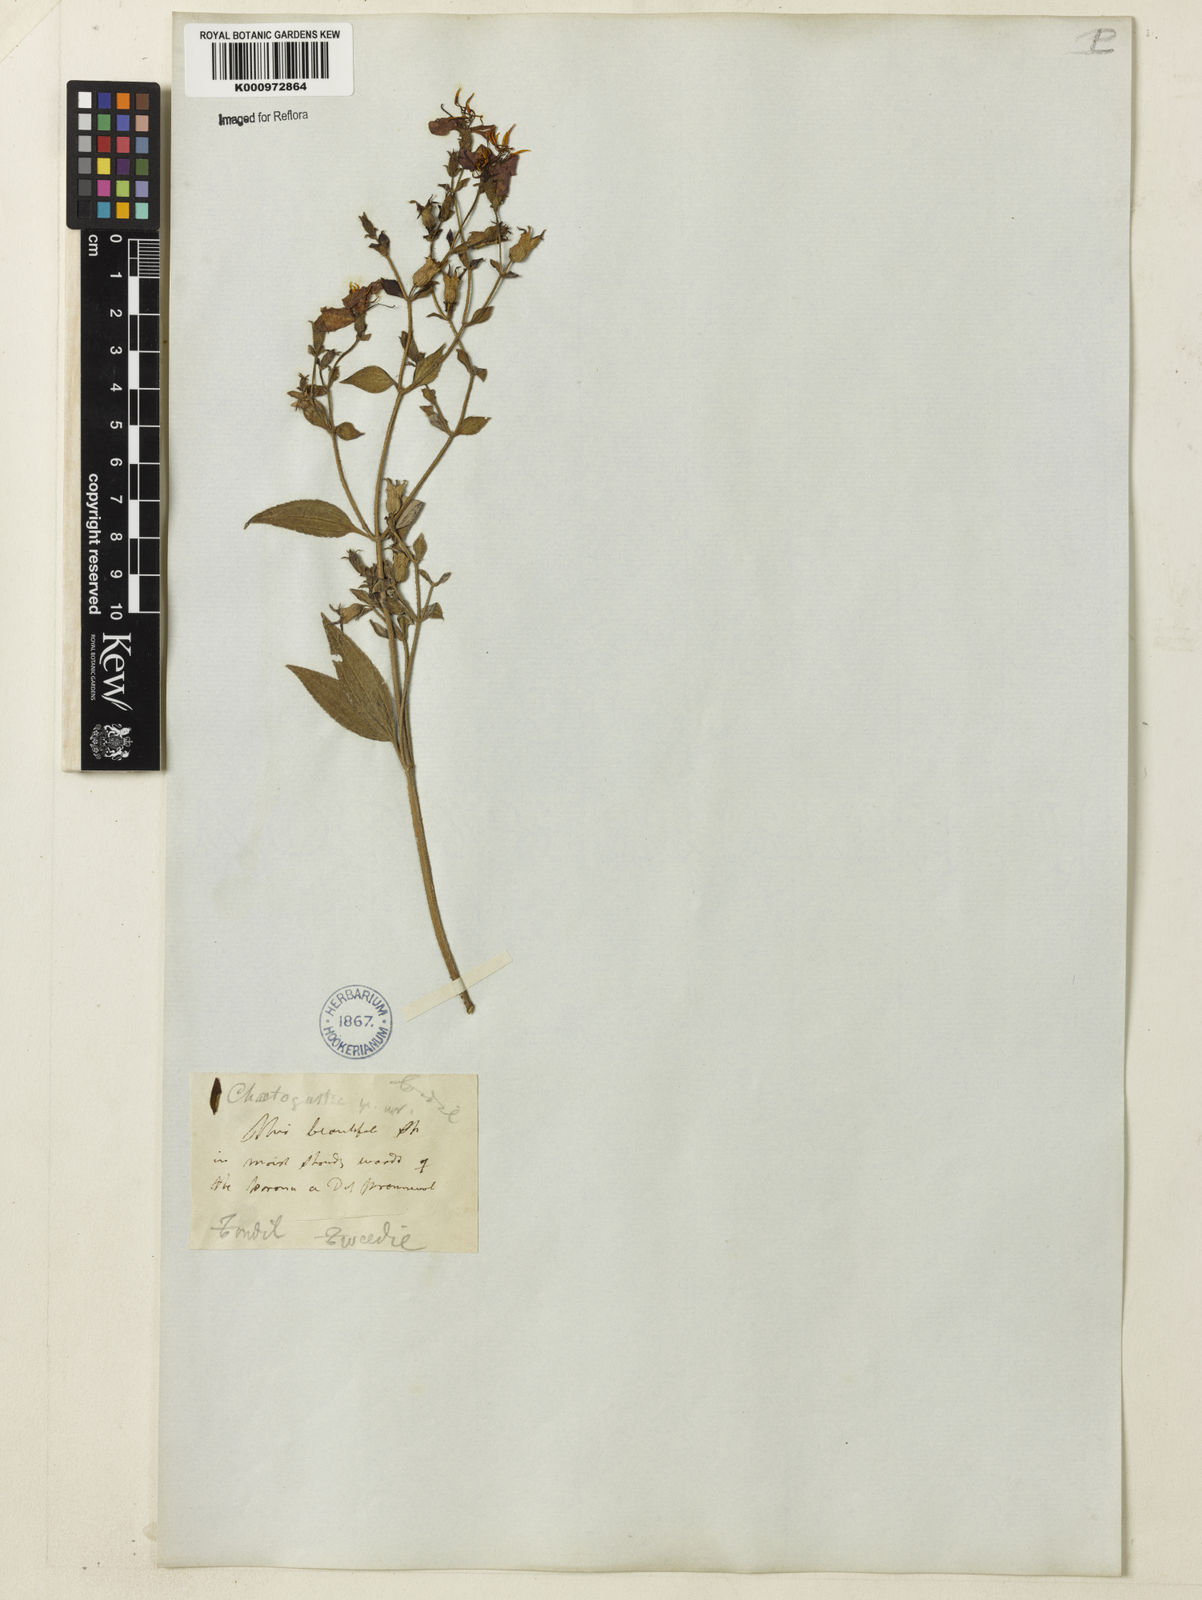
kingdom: Plantae
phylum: Tracheophyta
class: Magnoliopsida
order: Myrtales
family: Melastomataceae
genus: Chaetogastra
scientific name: Chaetogastra nitida
